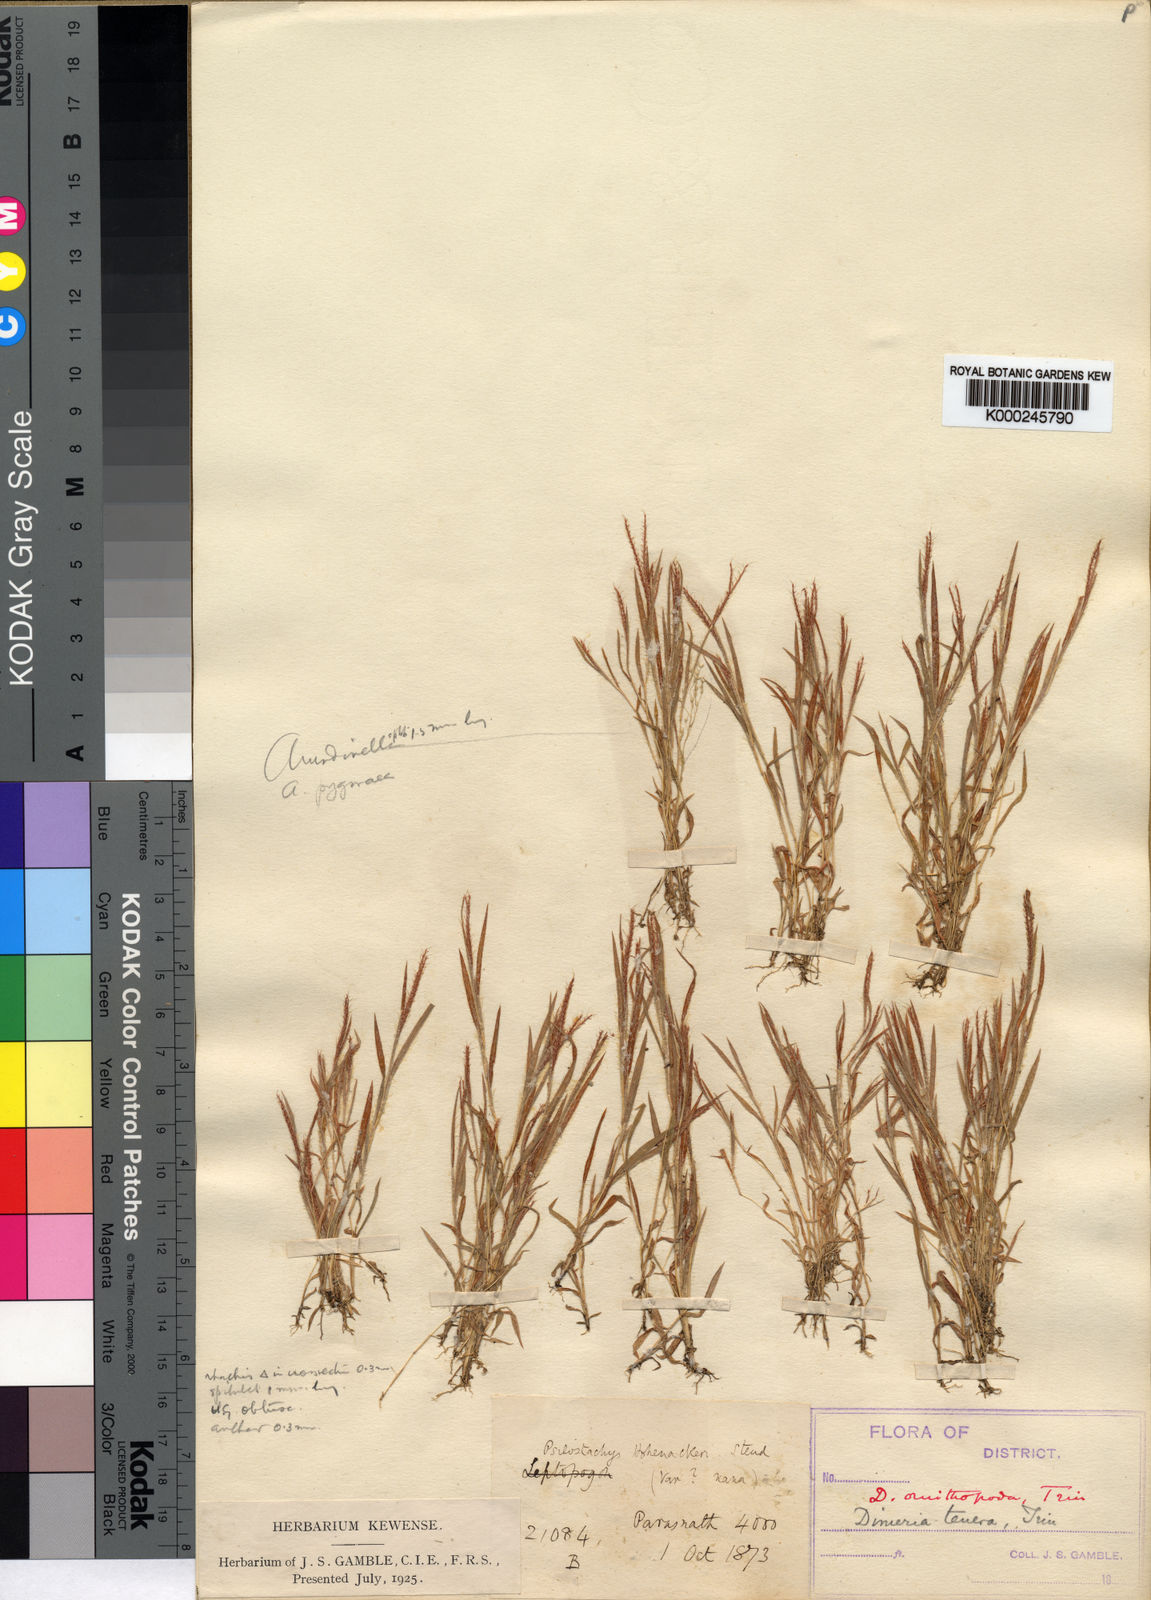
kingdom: Plantae
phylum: Tracheophyta
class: Liliopsida
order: Poales
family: Poaceae
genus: Dimeria
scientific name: Dimeria ornithopoda
